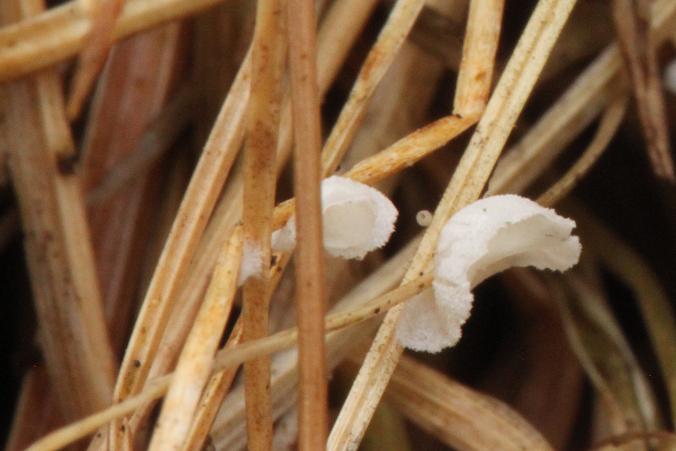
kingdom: Fungi
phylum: Basidiomycota
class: Agaricomycetes
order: Agaricales
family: Tricholomataceae
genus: Cellypha
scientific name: Cellypha goldbachii
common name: dråbeskål
